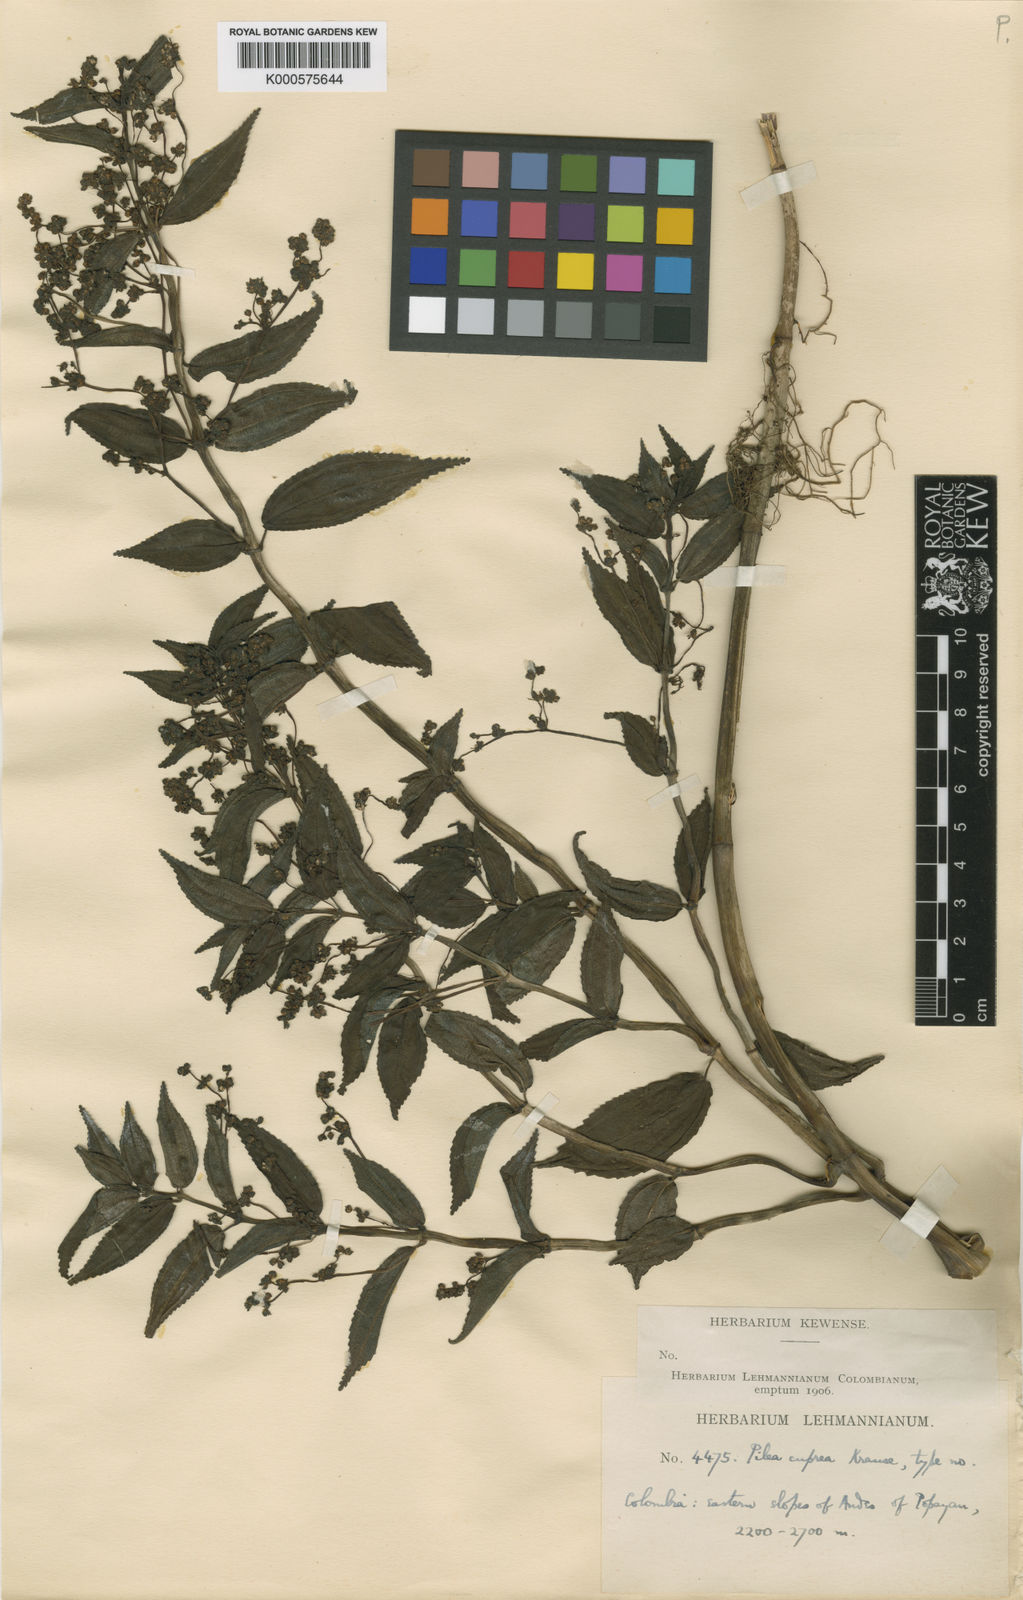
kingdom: Plantae
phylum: Tracheophyta
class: Magnoliopsida
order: Rosales
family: Urticaceae
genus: Pilea
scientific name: Pilea cuprea
